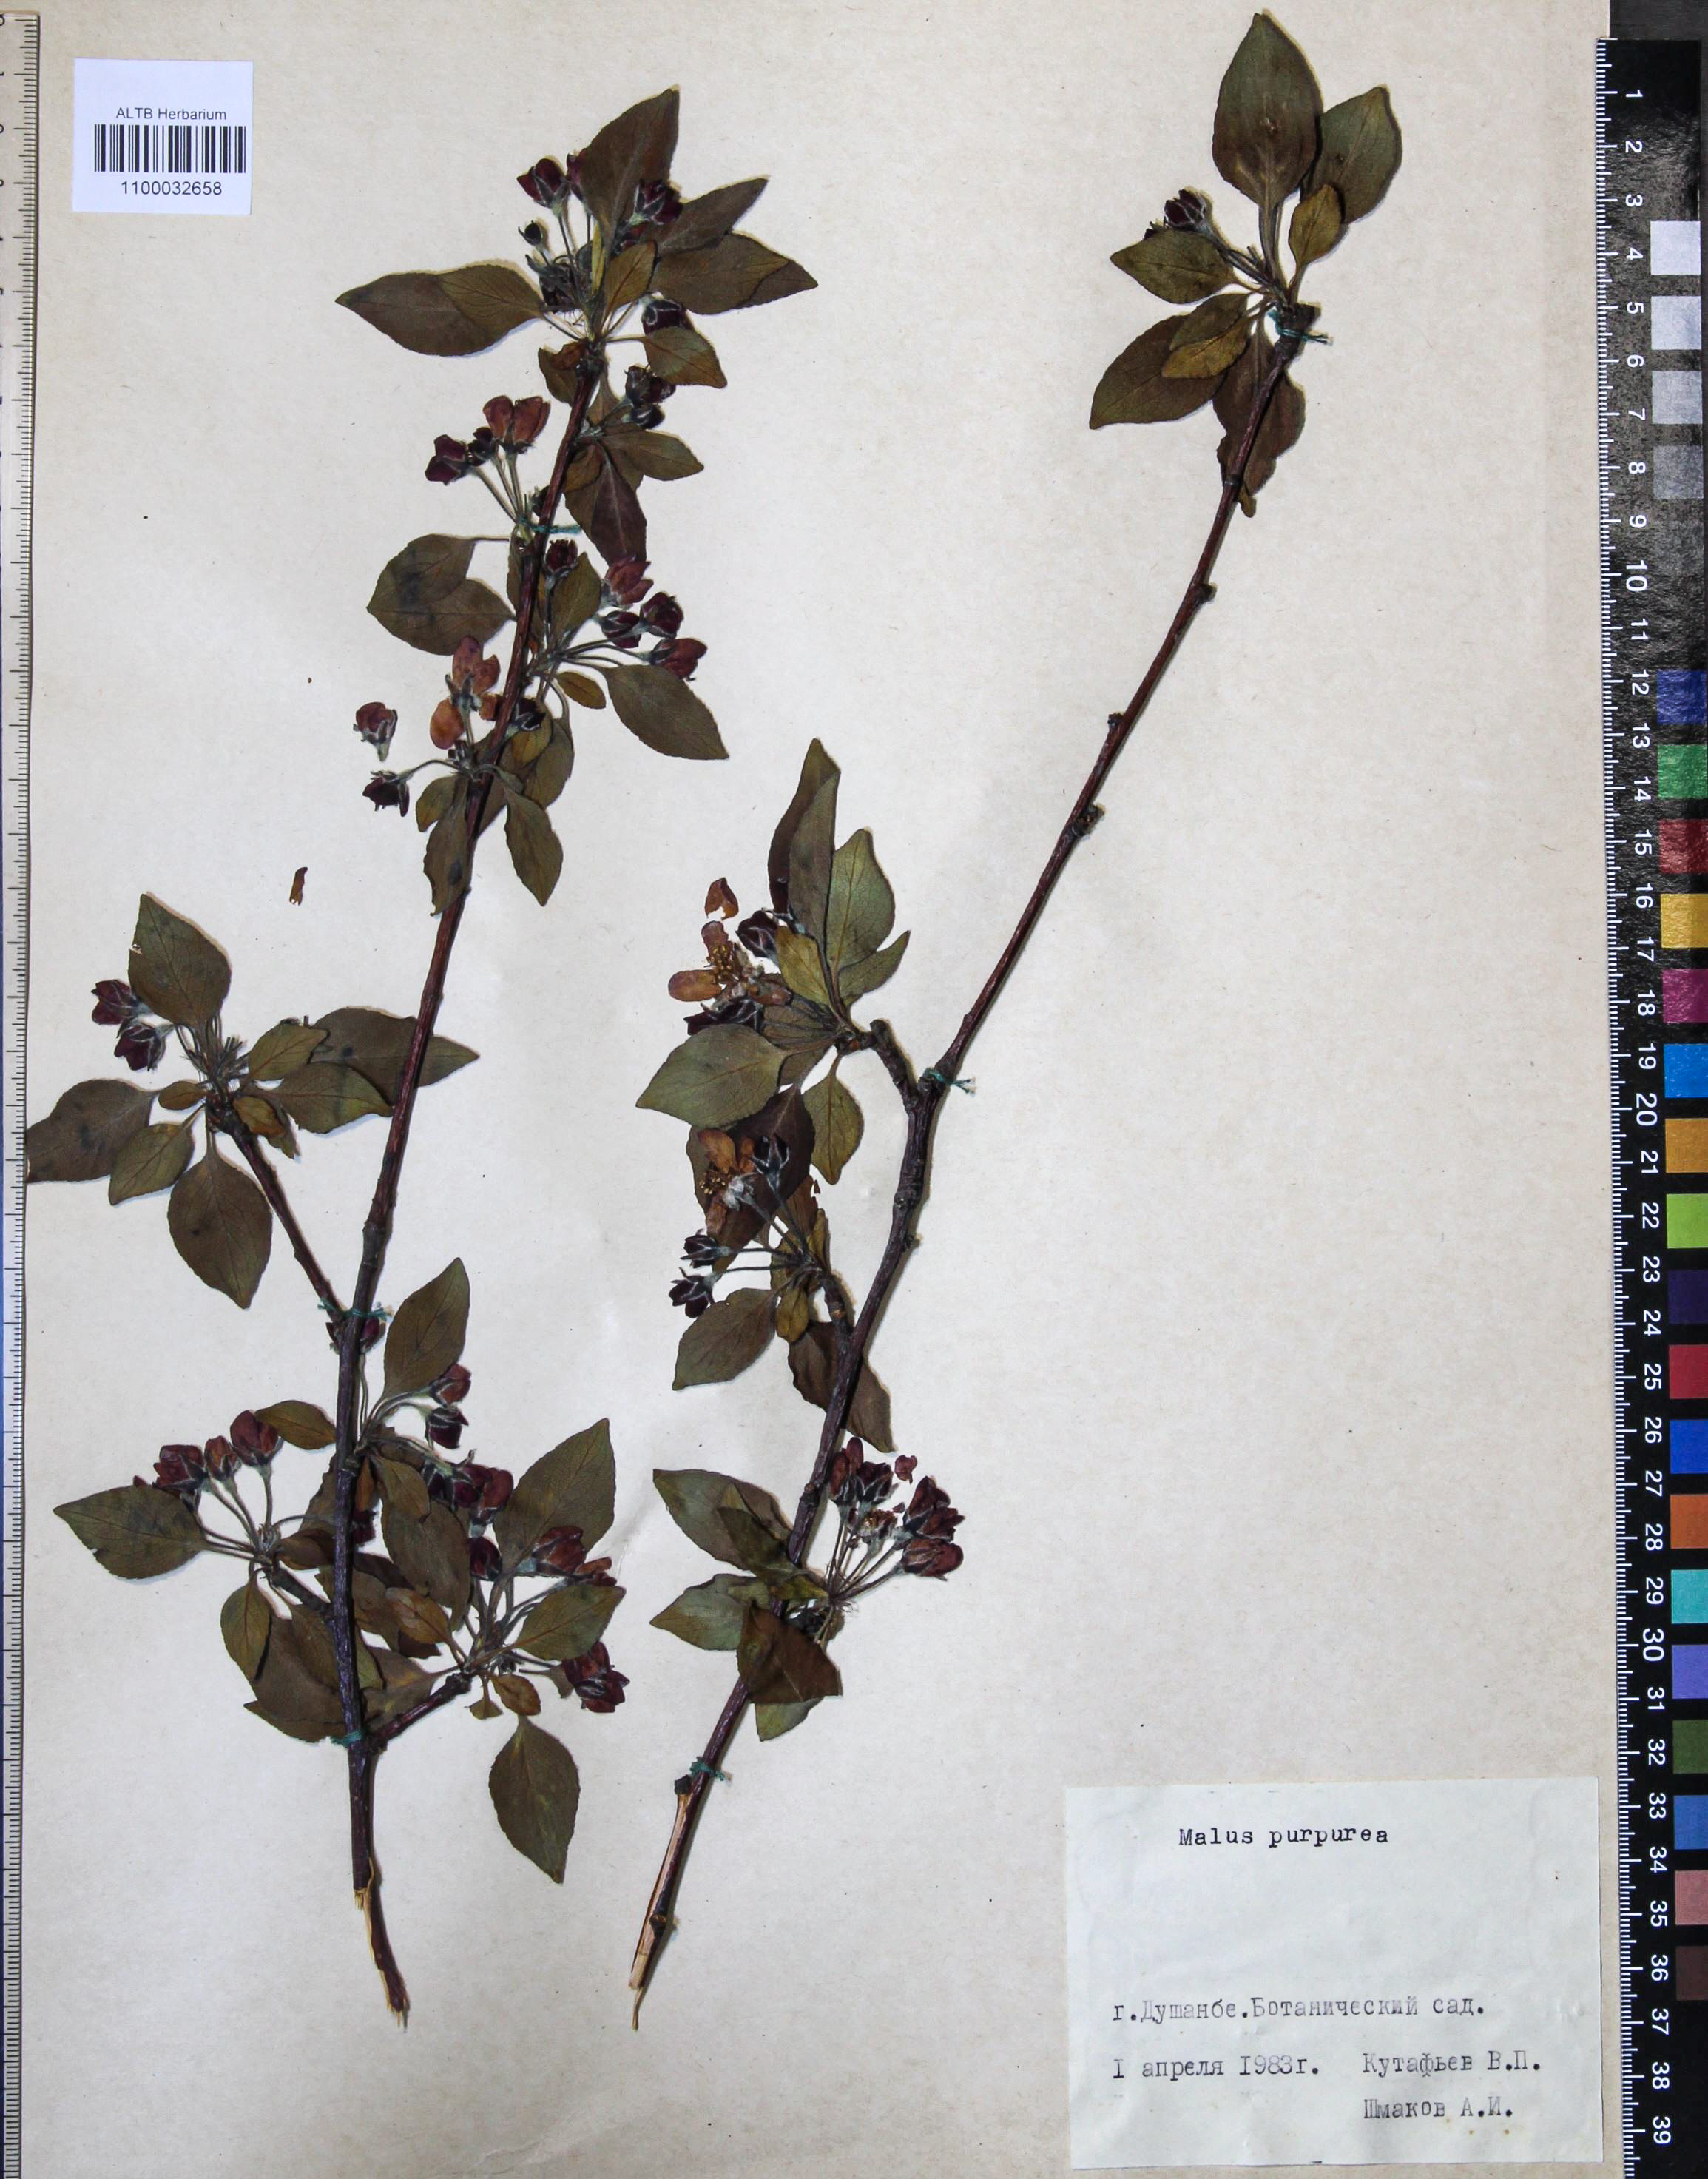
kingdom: Plantae
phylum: Tracheophyta
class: Magnoliopsida
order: Rosales
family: Rosaceae
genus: Malus
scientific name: Malus purpurea
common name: Purple crab apple
